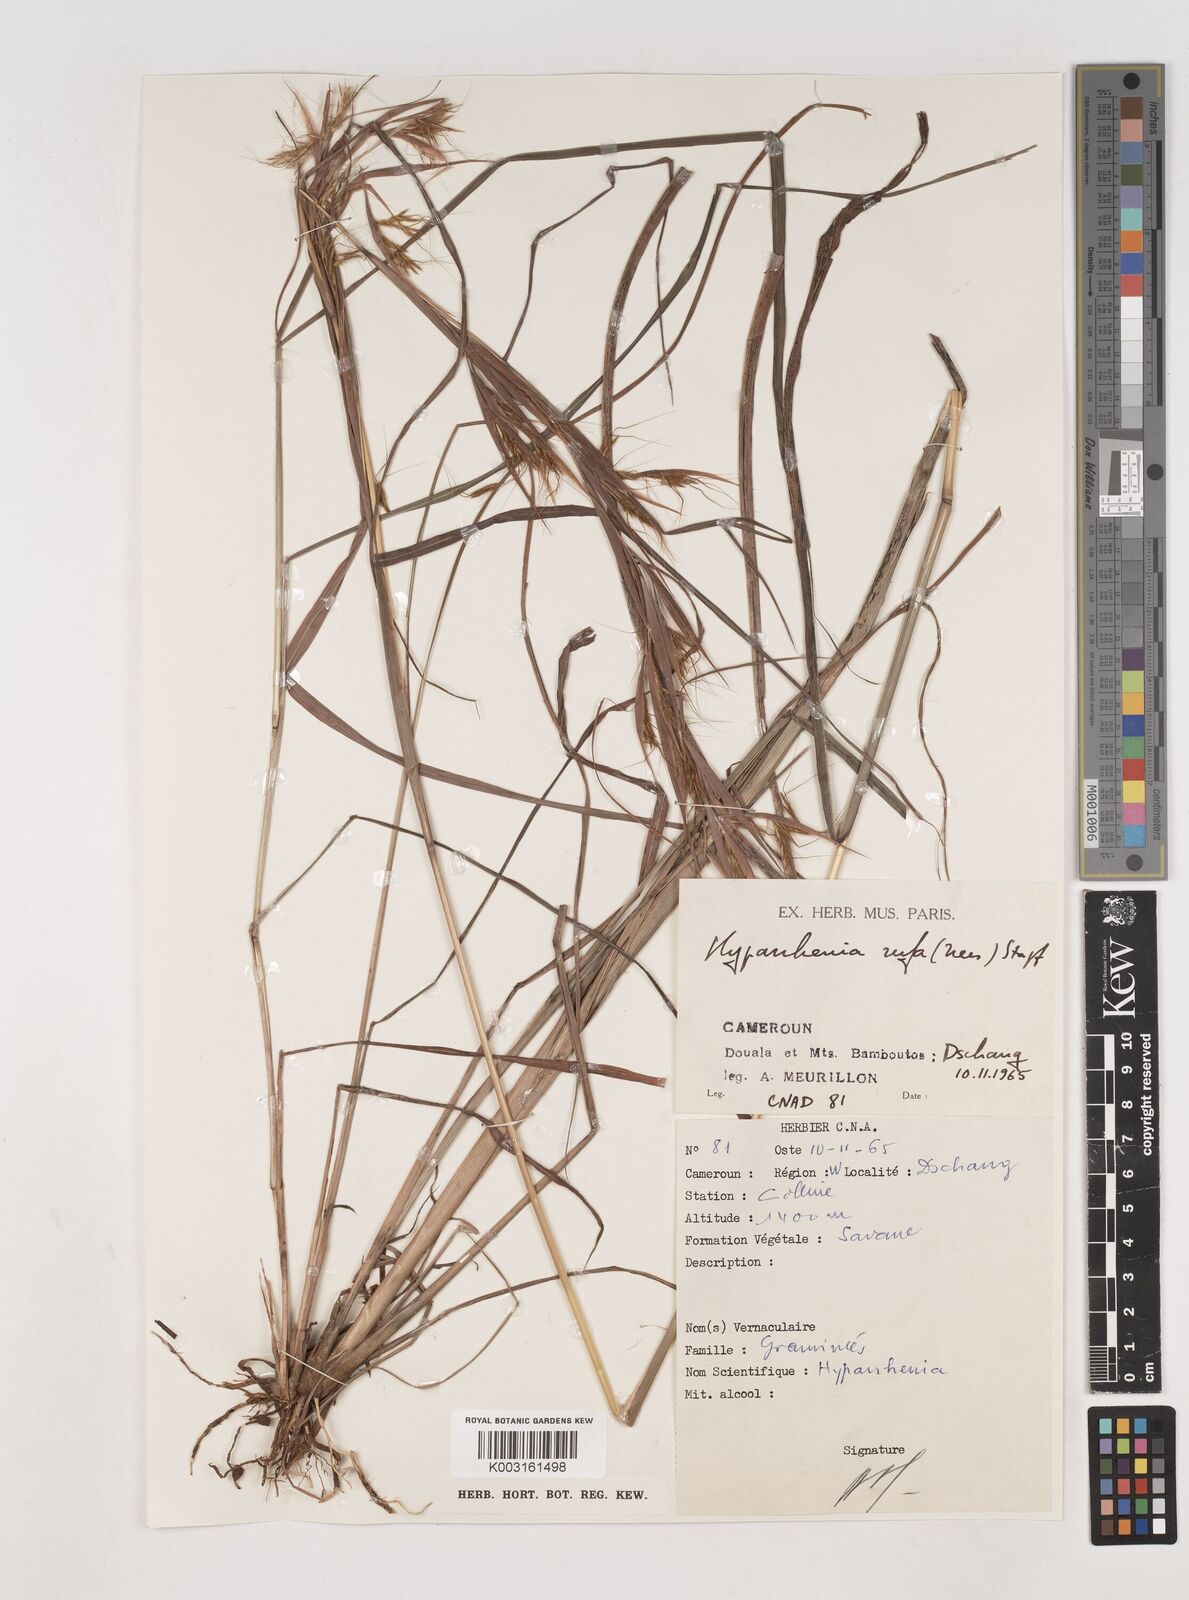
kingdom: Plantae
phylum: Tracheophyta
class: Liliopsida
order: Poales
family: Poaceae
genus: Hyparrhenia
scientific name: Hyparrhenia rufa
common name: Jaraguagrass
